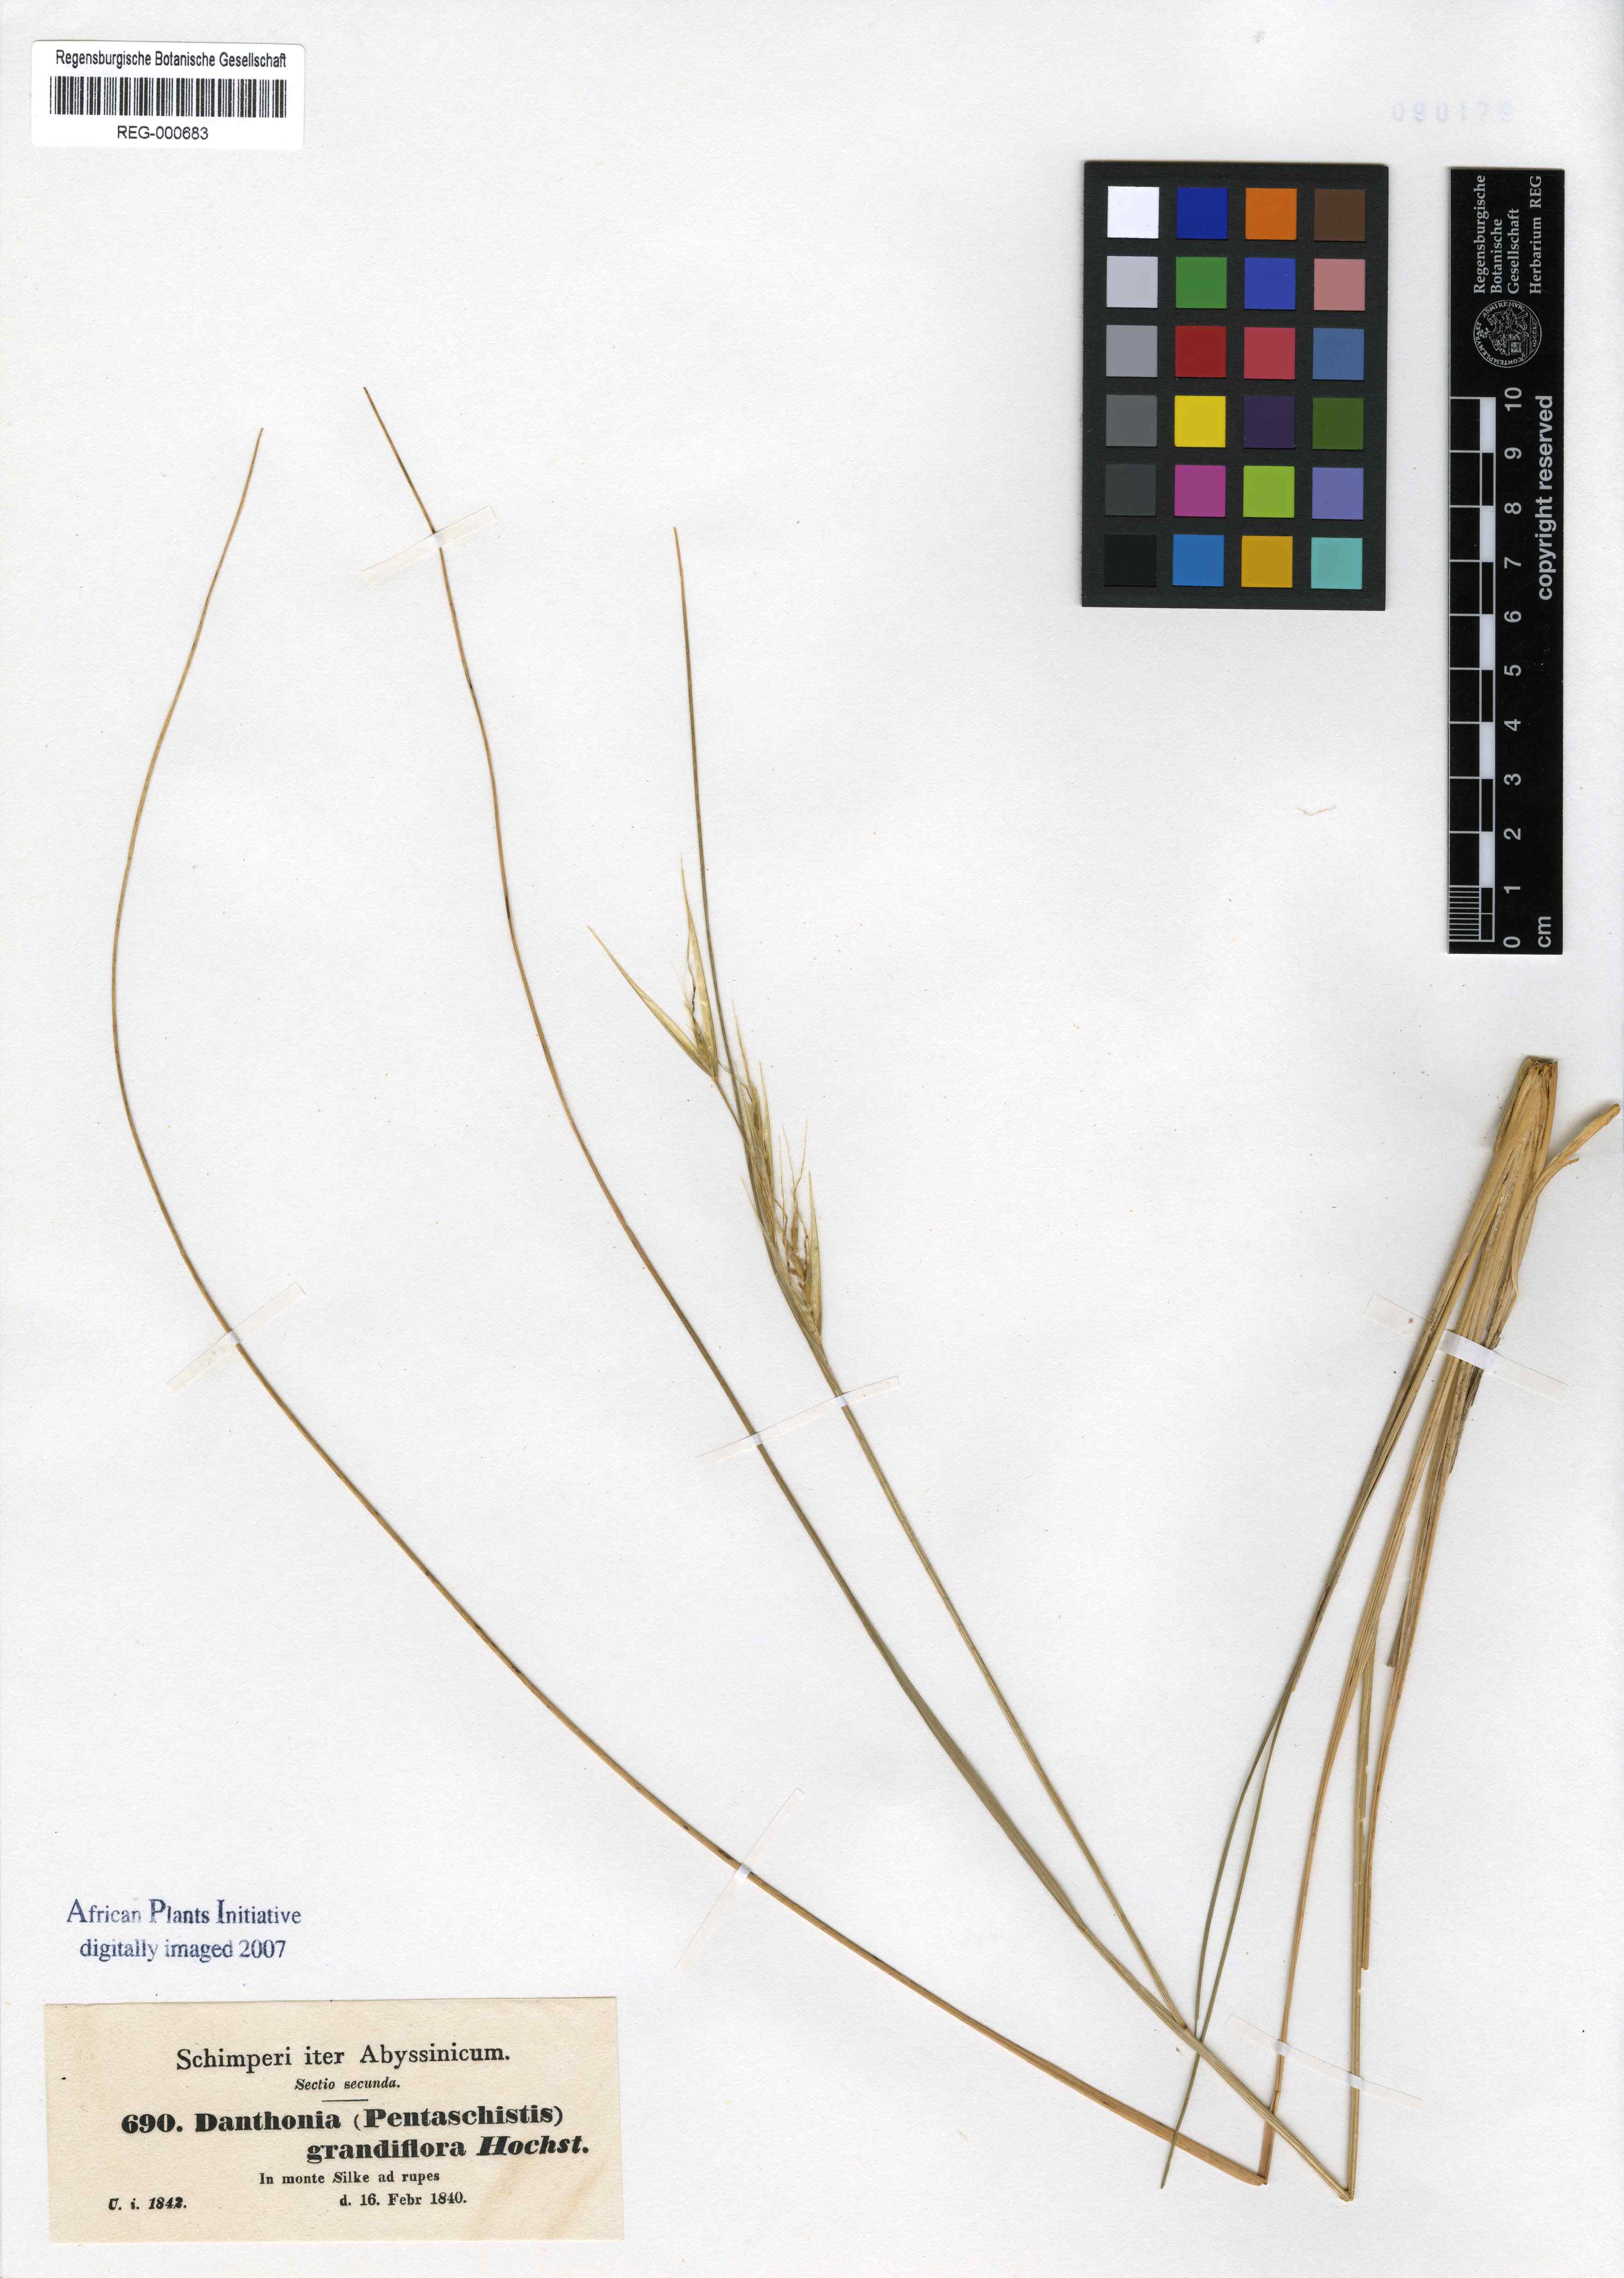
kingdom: Plantae
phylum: Tracheophyta
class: Liliopsida
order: Poales
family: Poaceae
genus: Merxmuellera
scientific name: Merxmuellera grandiflora
